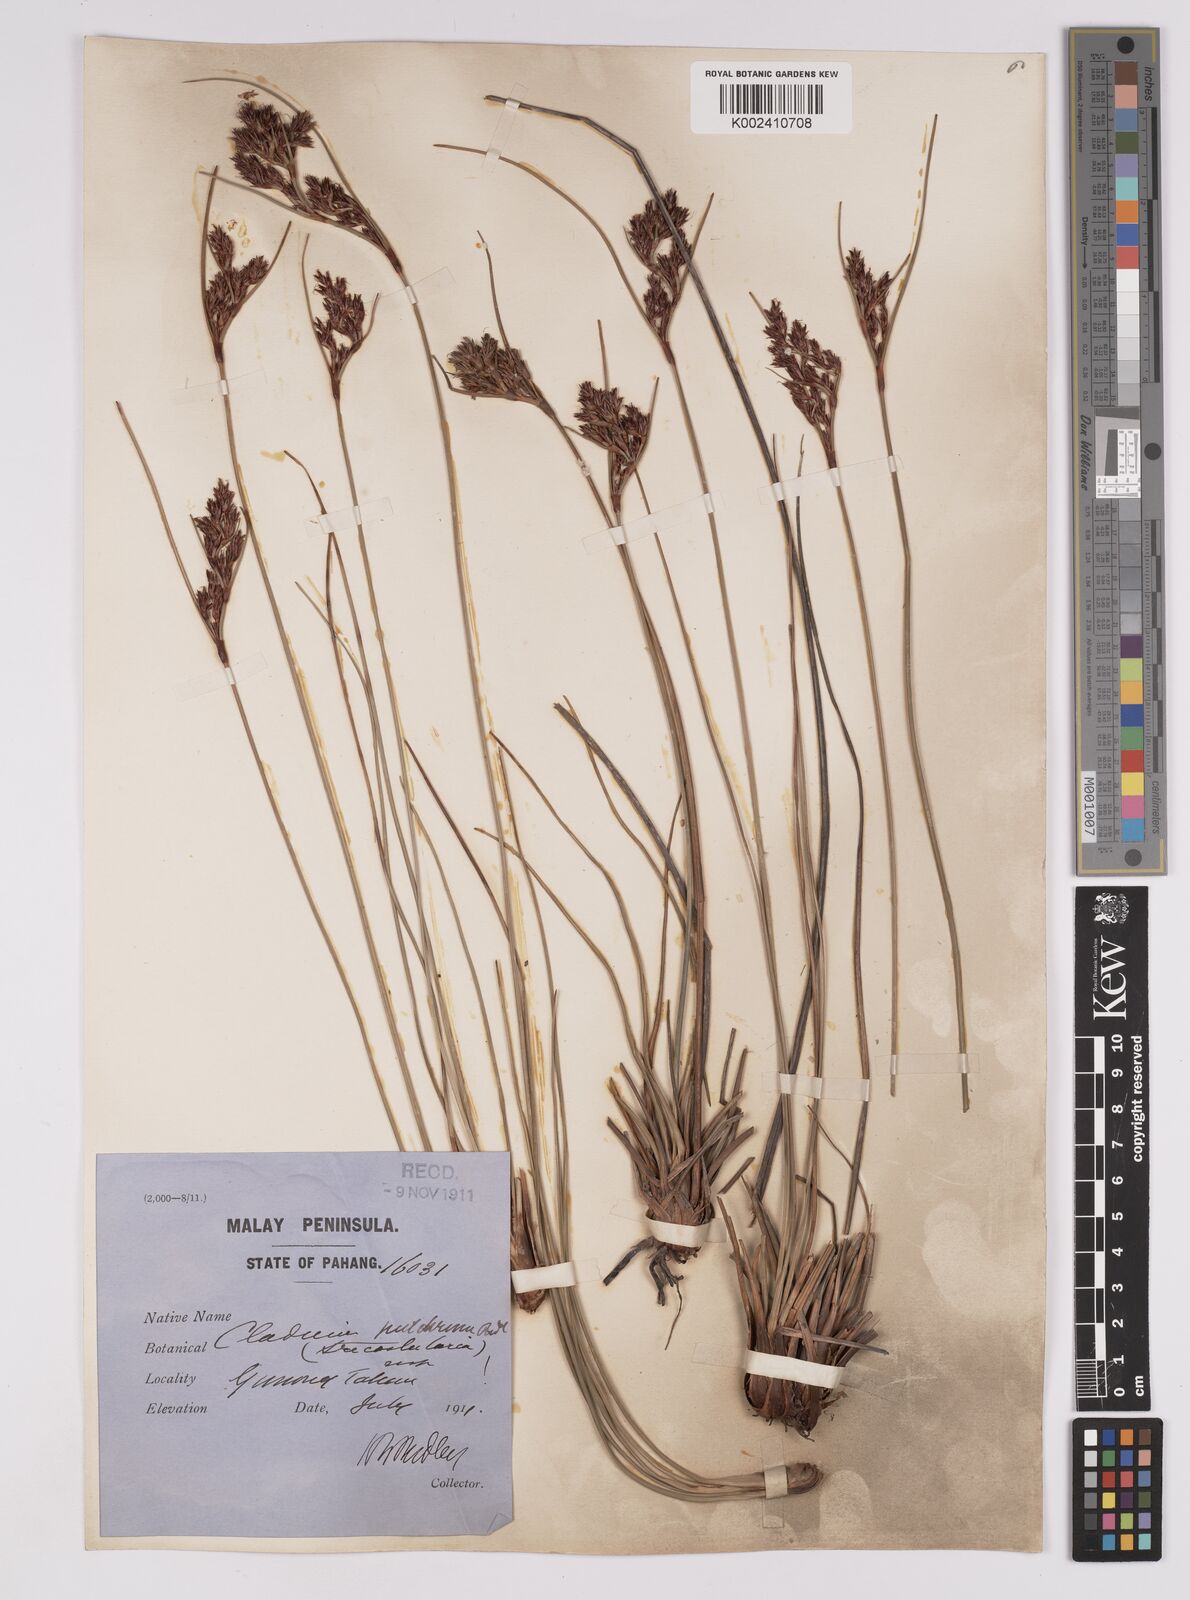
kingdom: Plantae
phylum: Tracheophyta
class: Liliopsida
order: Poales
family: Cyperaceae
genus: Anthelepis
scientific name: Anthelepis undulata
